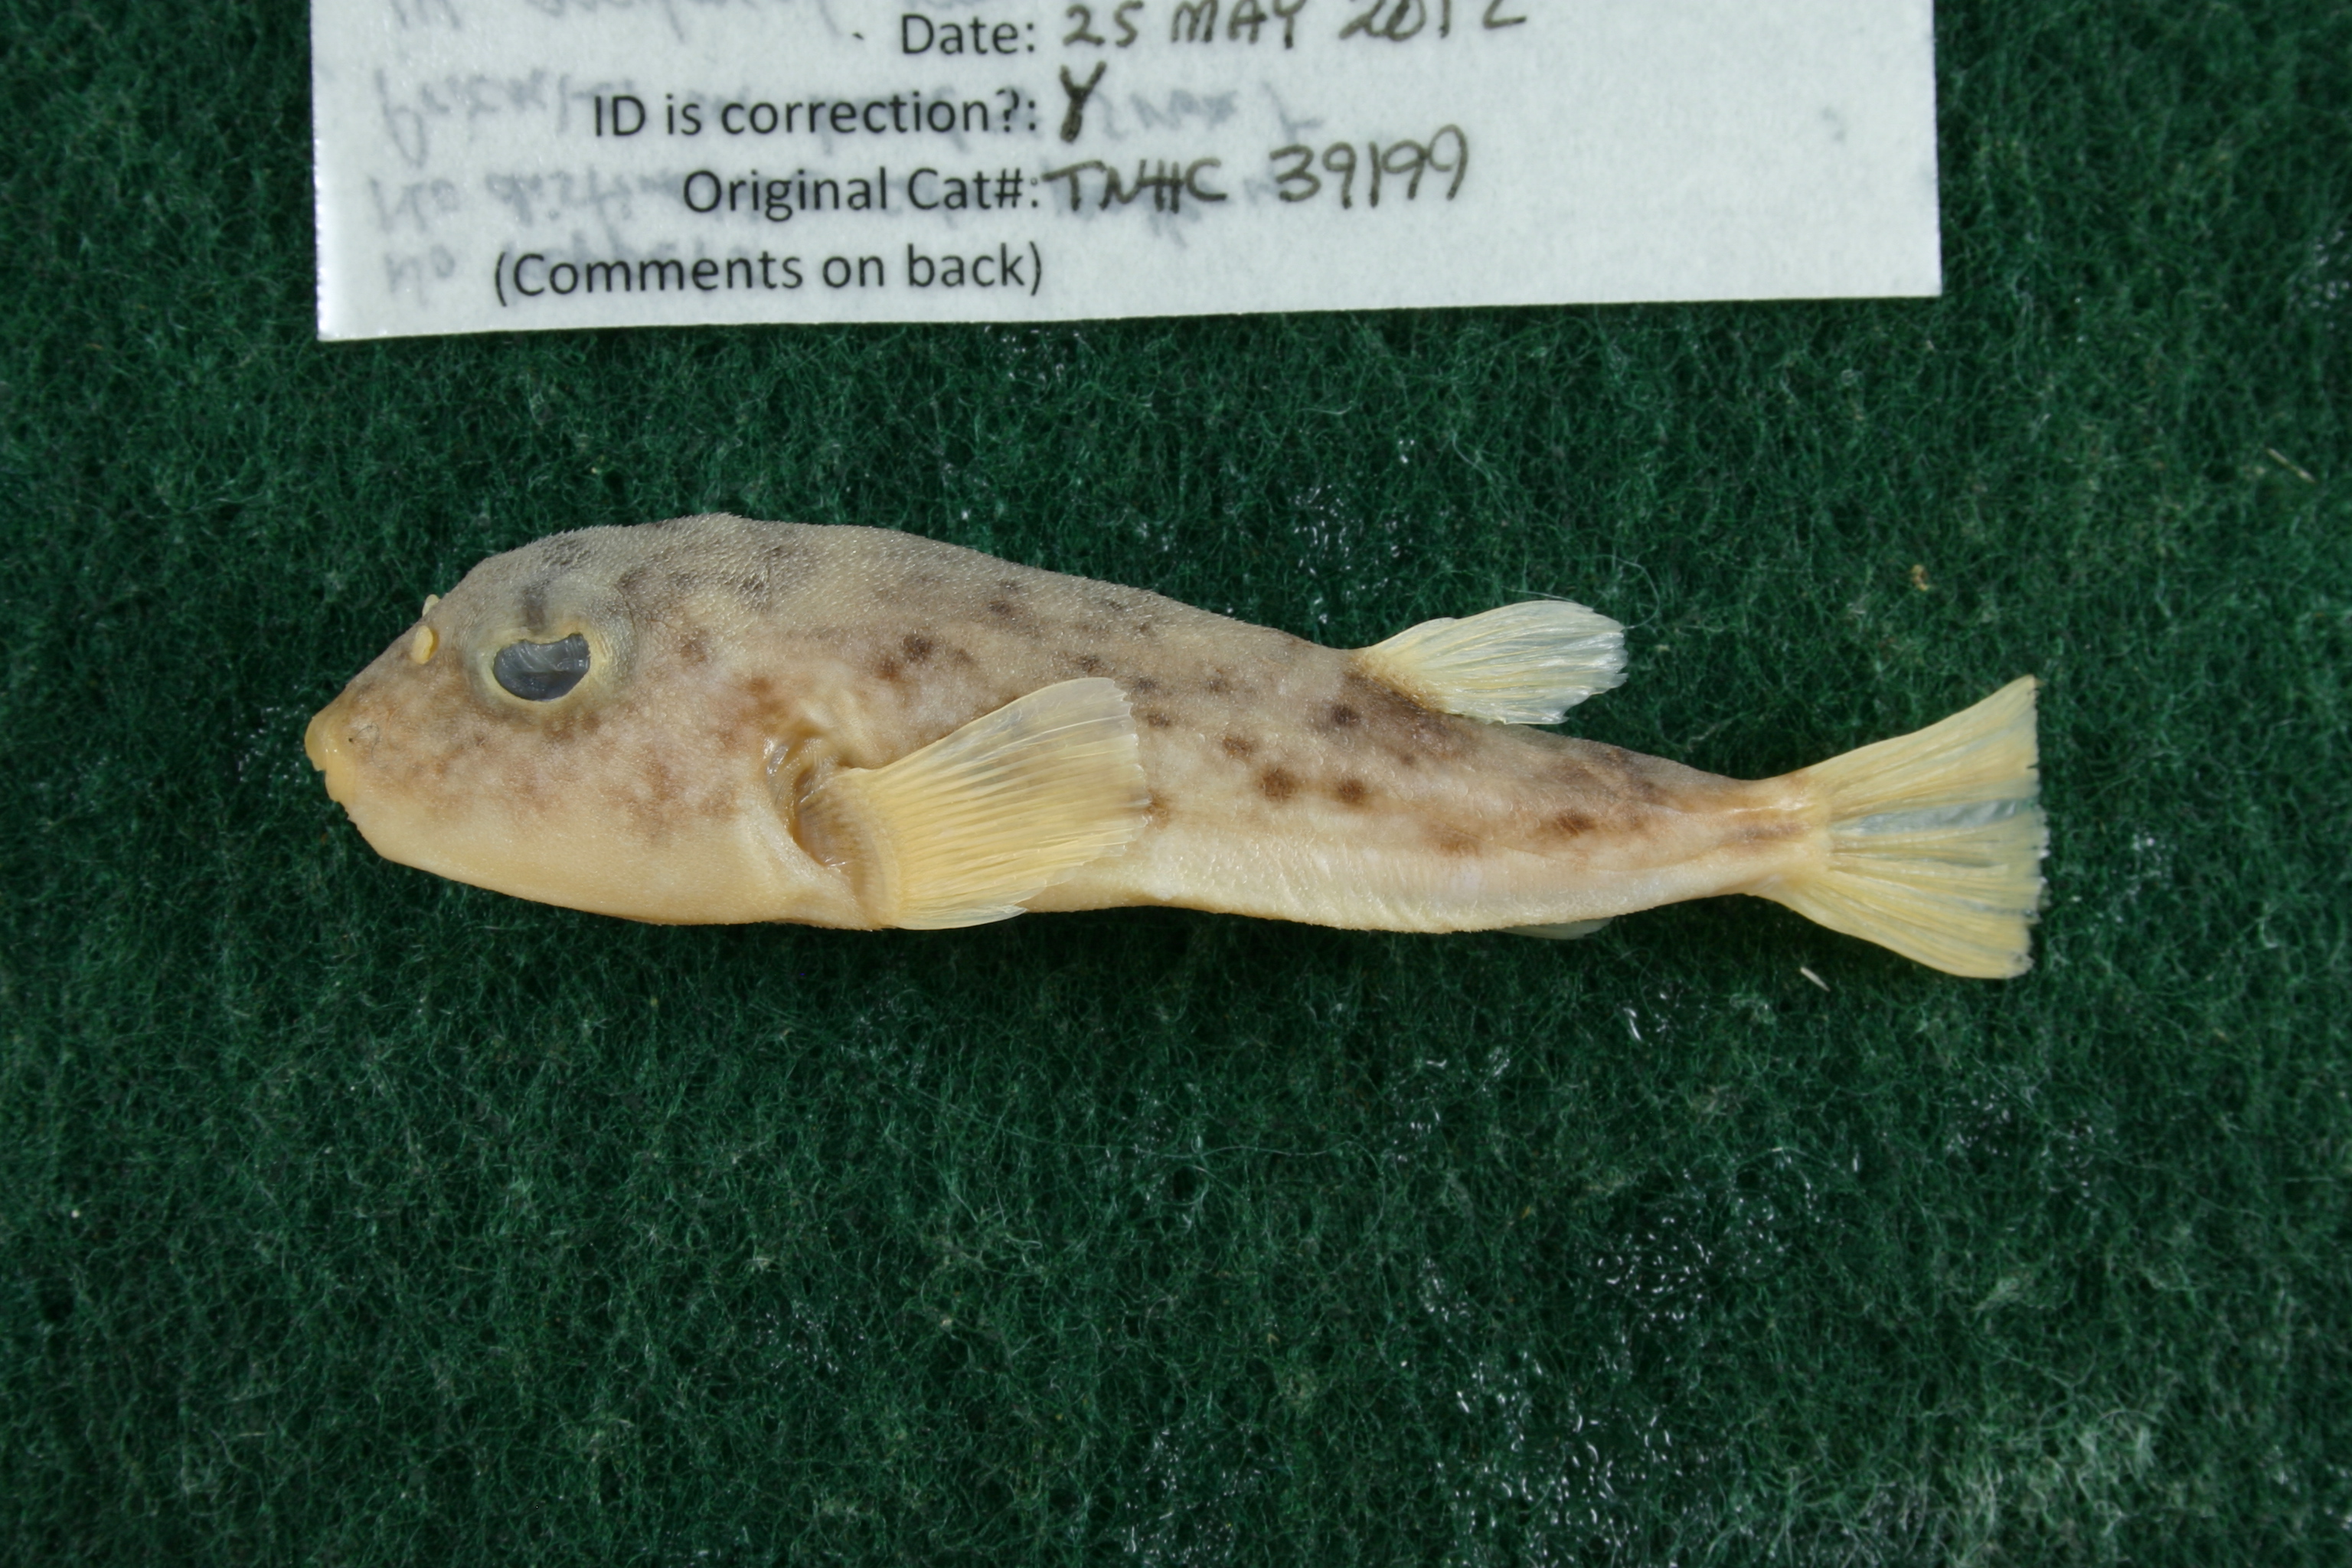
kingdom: Animalia
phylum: Chordata
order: Tetraodontiformes
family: Tetraodontidae
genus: Sphoeroides
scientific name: Sphoeroides parvus
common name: Least puffer
